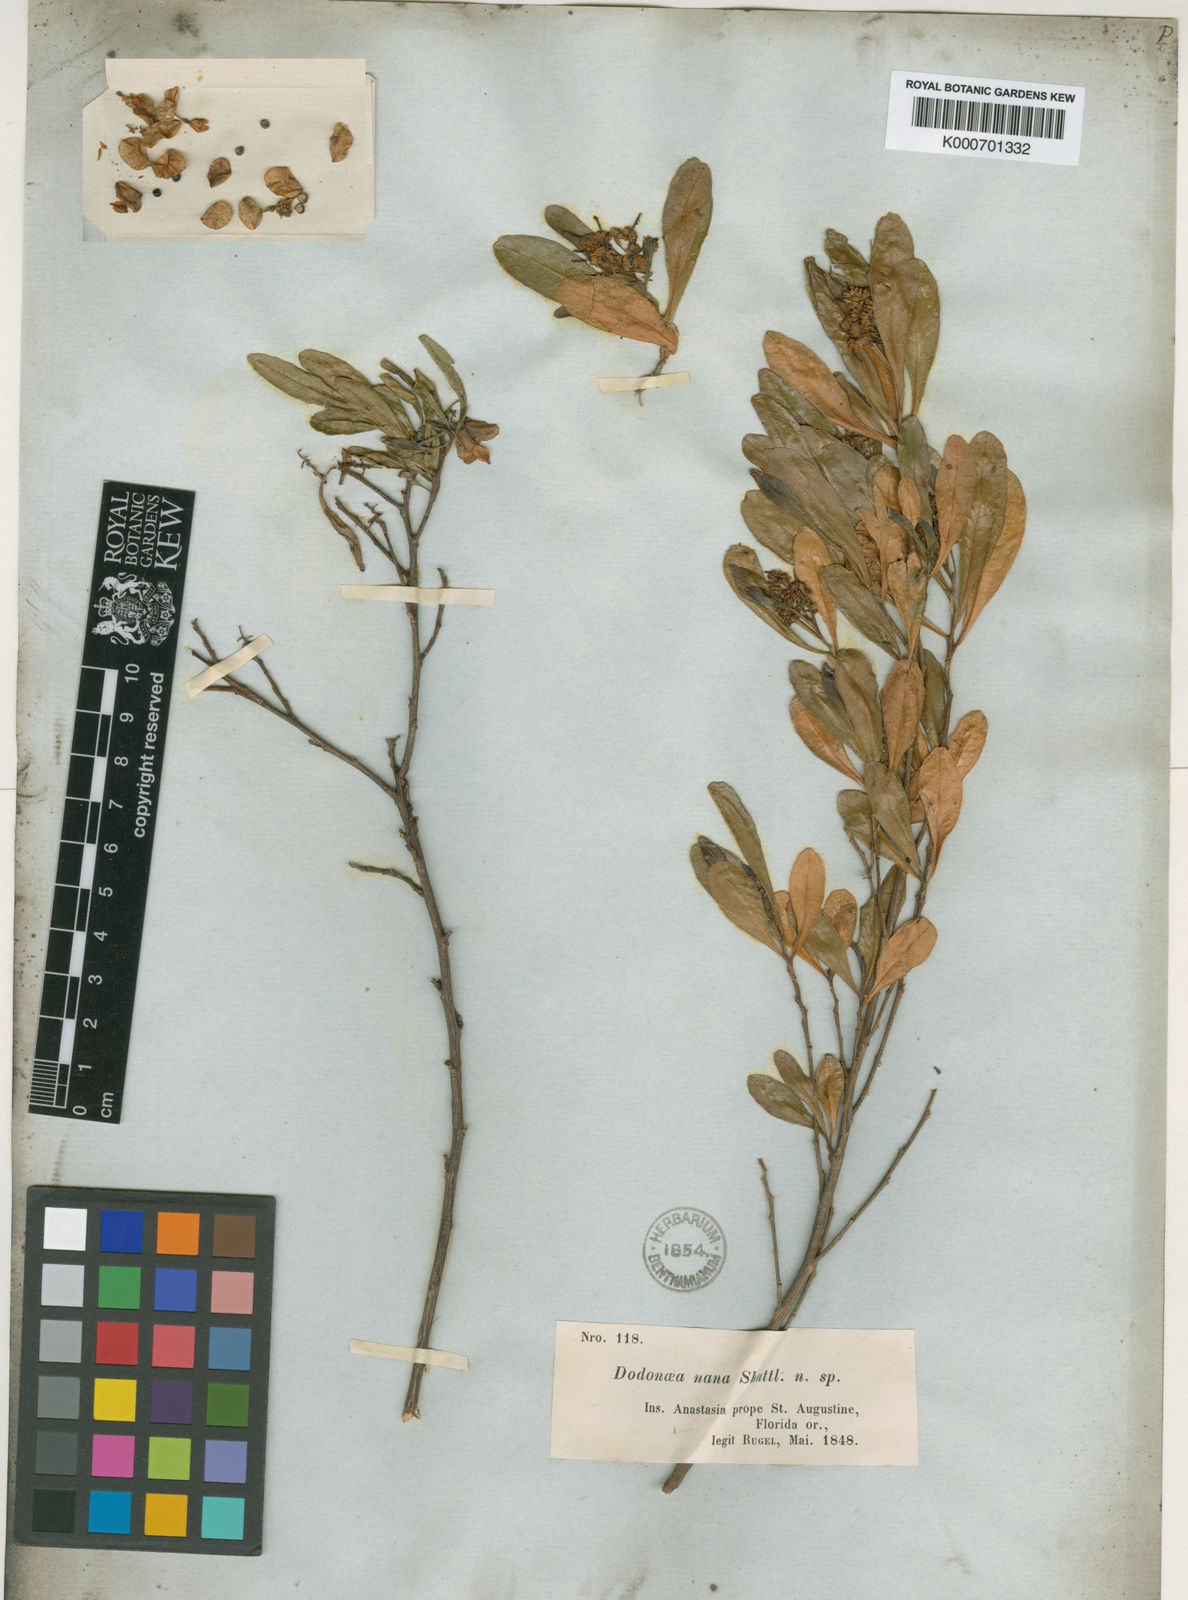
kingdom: Plantae
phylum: Tracheophyta
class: Magnoliopsida
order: Sapindales
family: Sapindaceae
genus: Dodonaea
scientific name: Dodonaea
